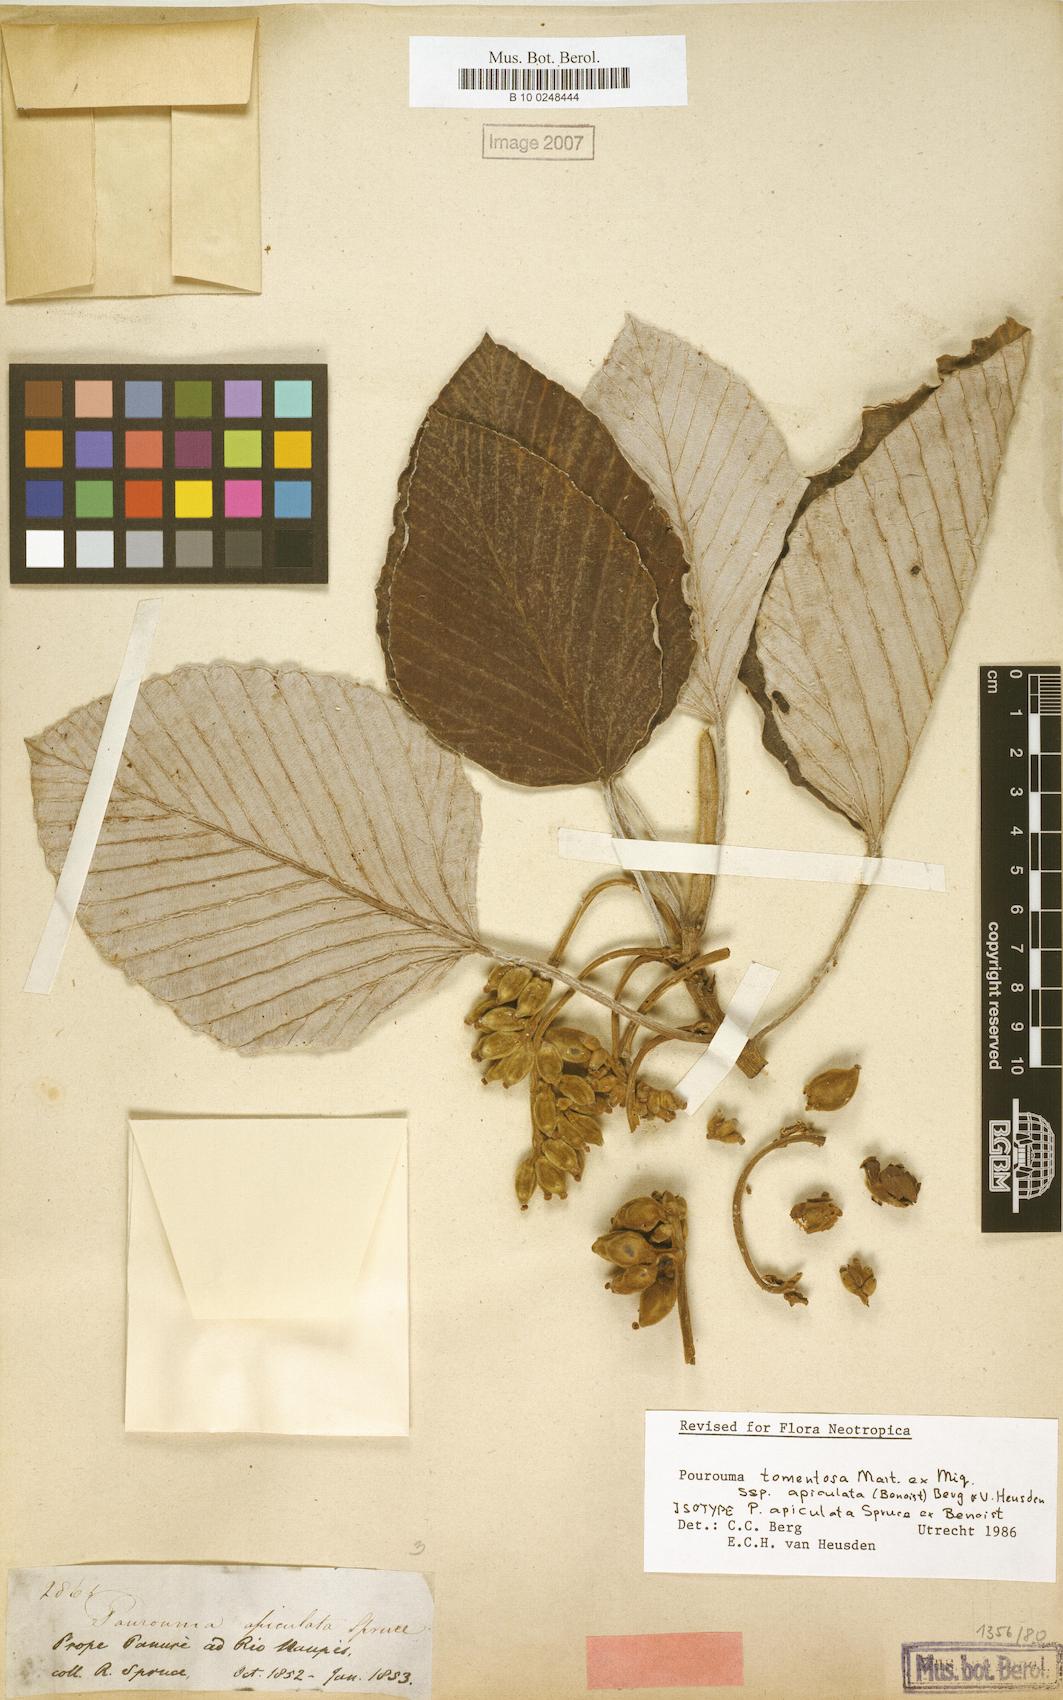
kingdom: Plantae
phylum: Tracheophyta
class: Magnoliopsida
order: Rosales
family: Urticaceae
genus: Pourouma
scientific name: Pourouma tomentosa
